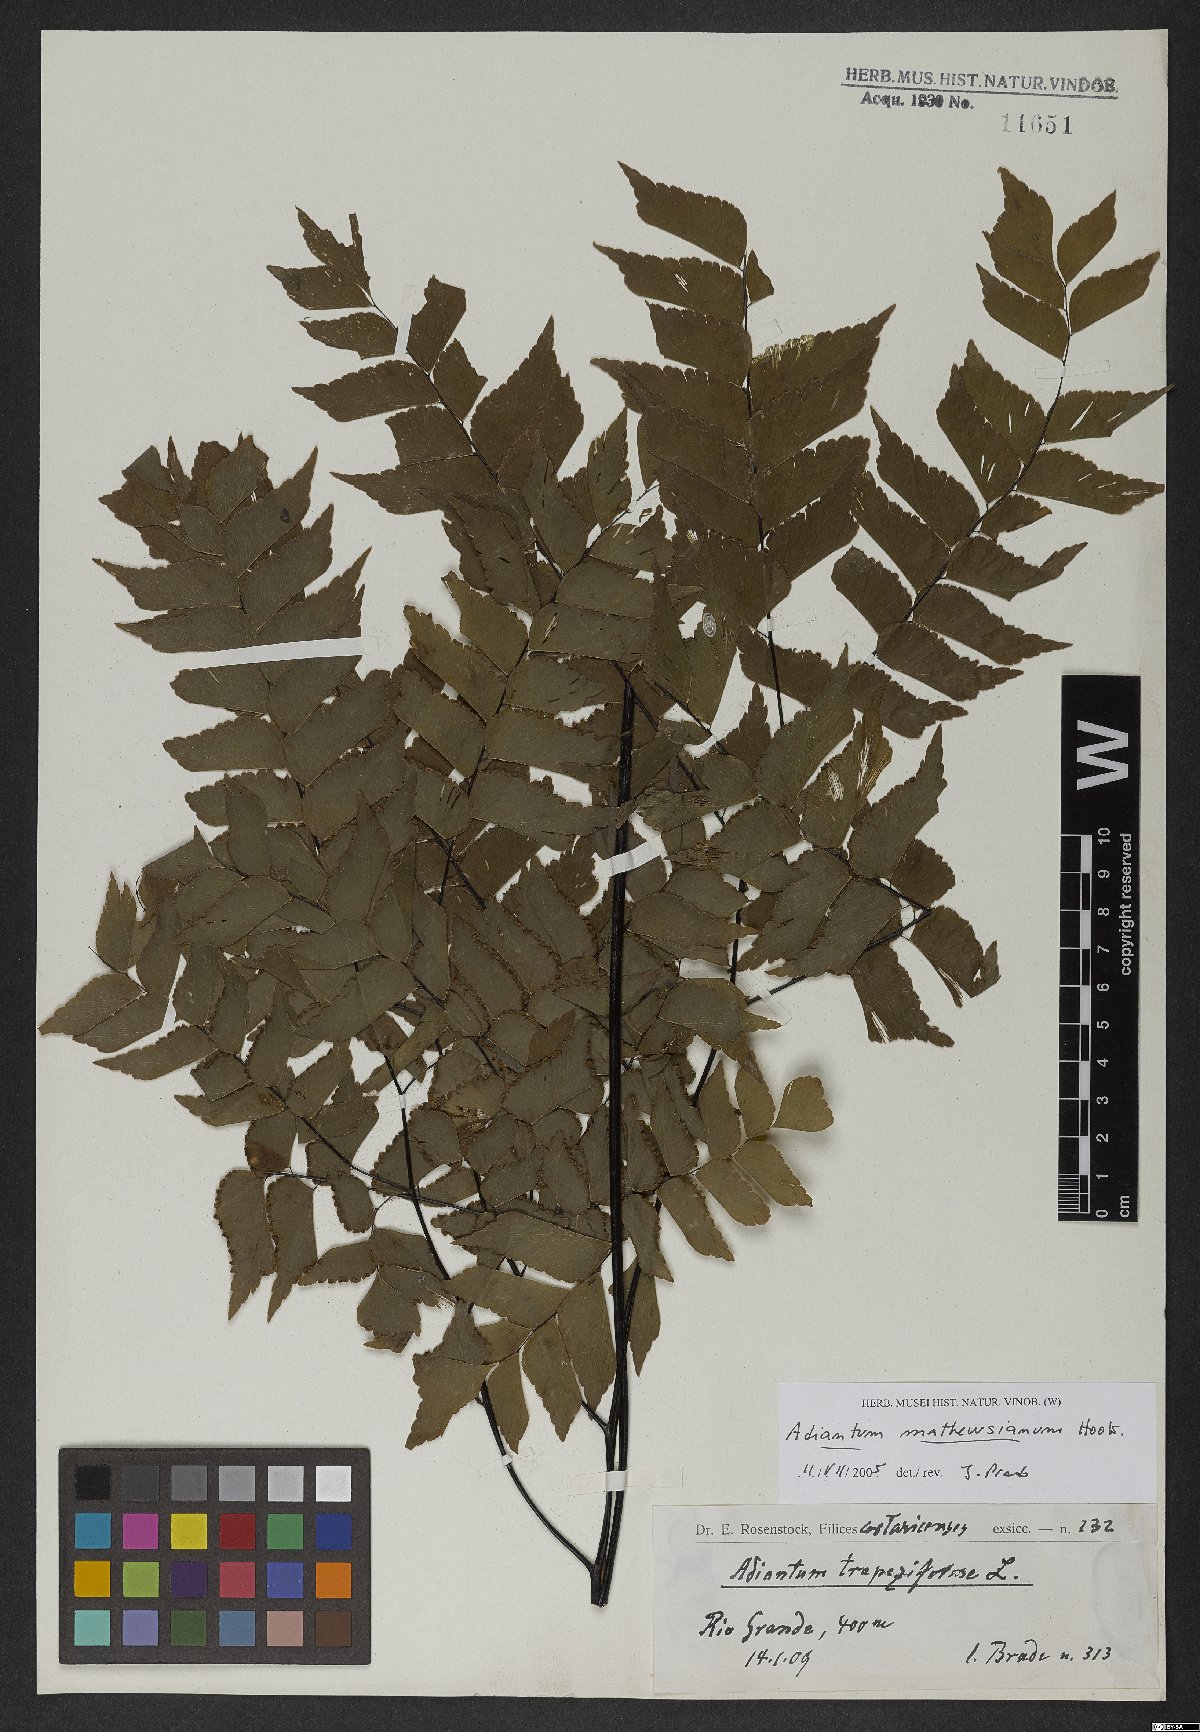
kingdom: Plantae
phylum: Tracheophyta
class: Polypodiopsida
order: Polypodiales
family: Pteridaceae
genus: Adiantum
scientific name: Adiantum mathewsianum
